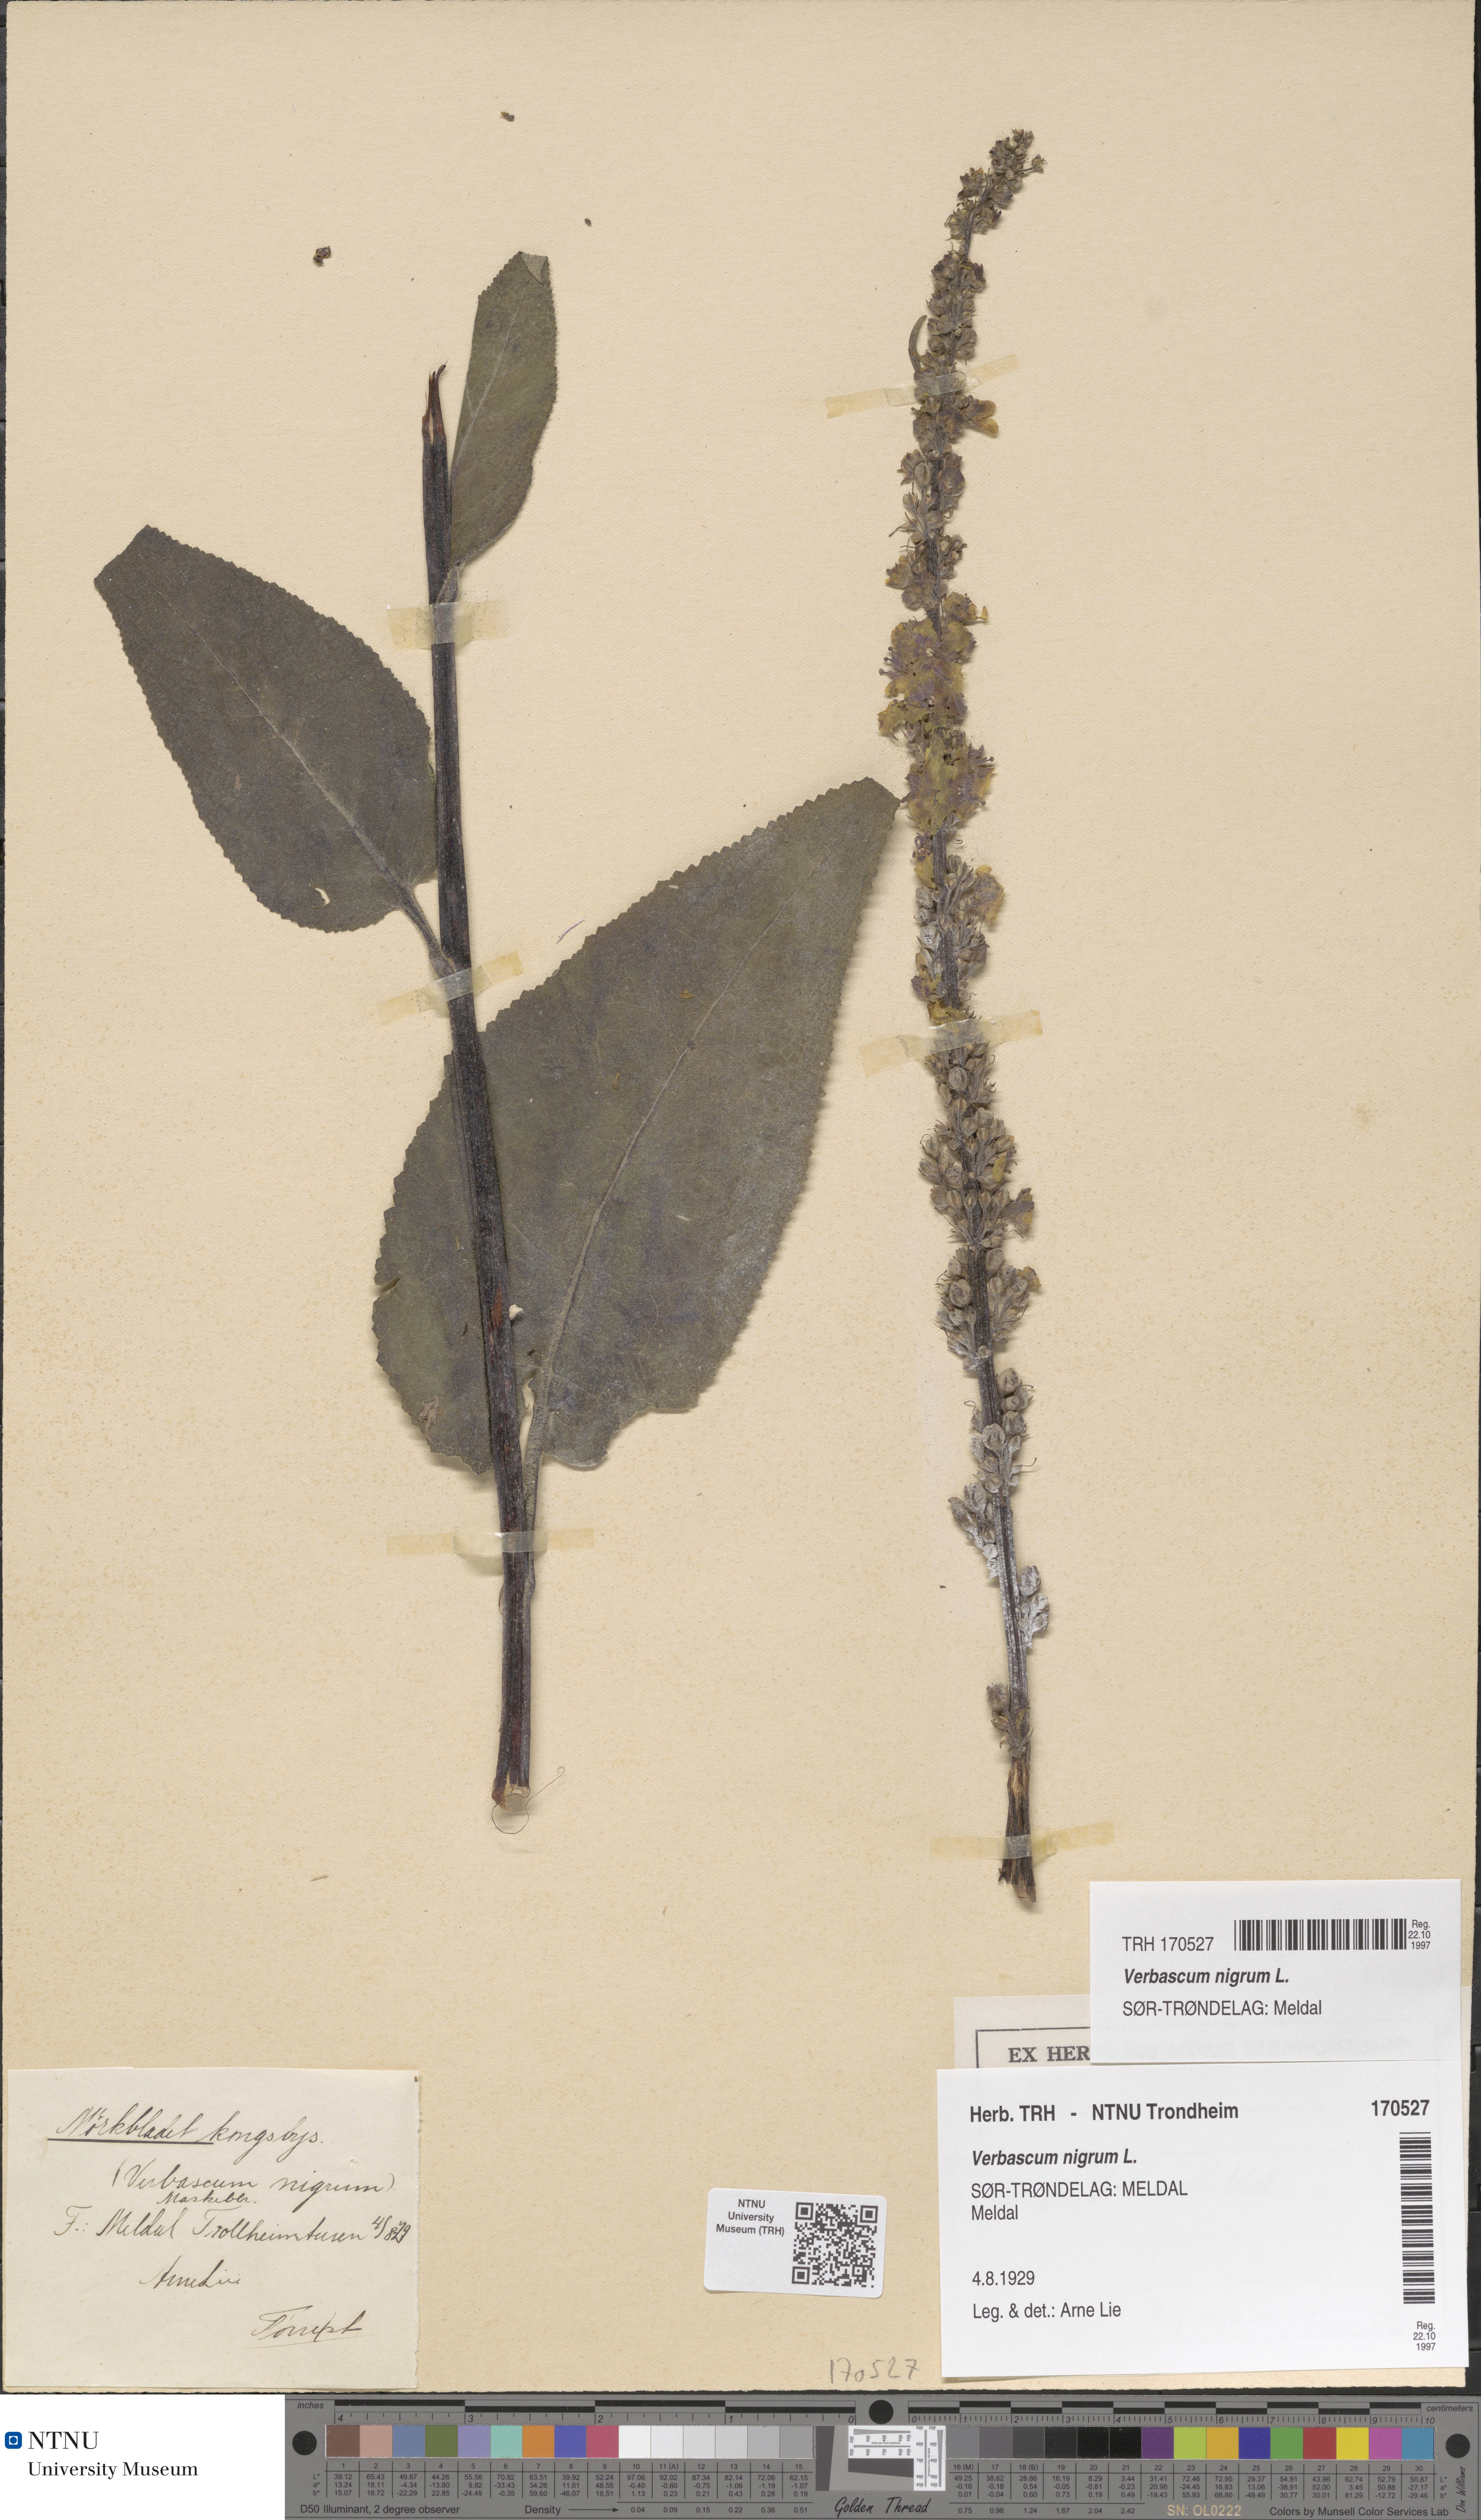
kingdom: Plantae
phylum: Tracheophyta
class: Magnoliopsida
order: Lamiales
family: Scrophulariaceae
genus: Verbascum
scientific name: Verbascum nigrum
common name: Dark mullein
